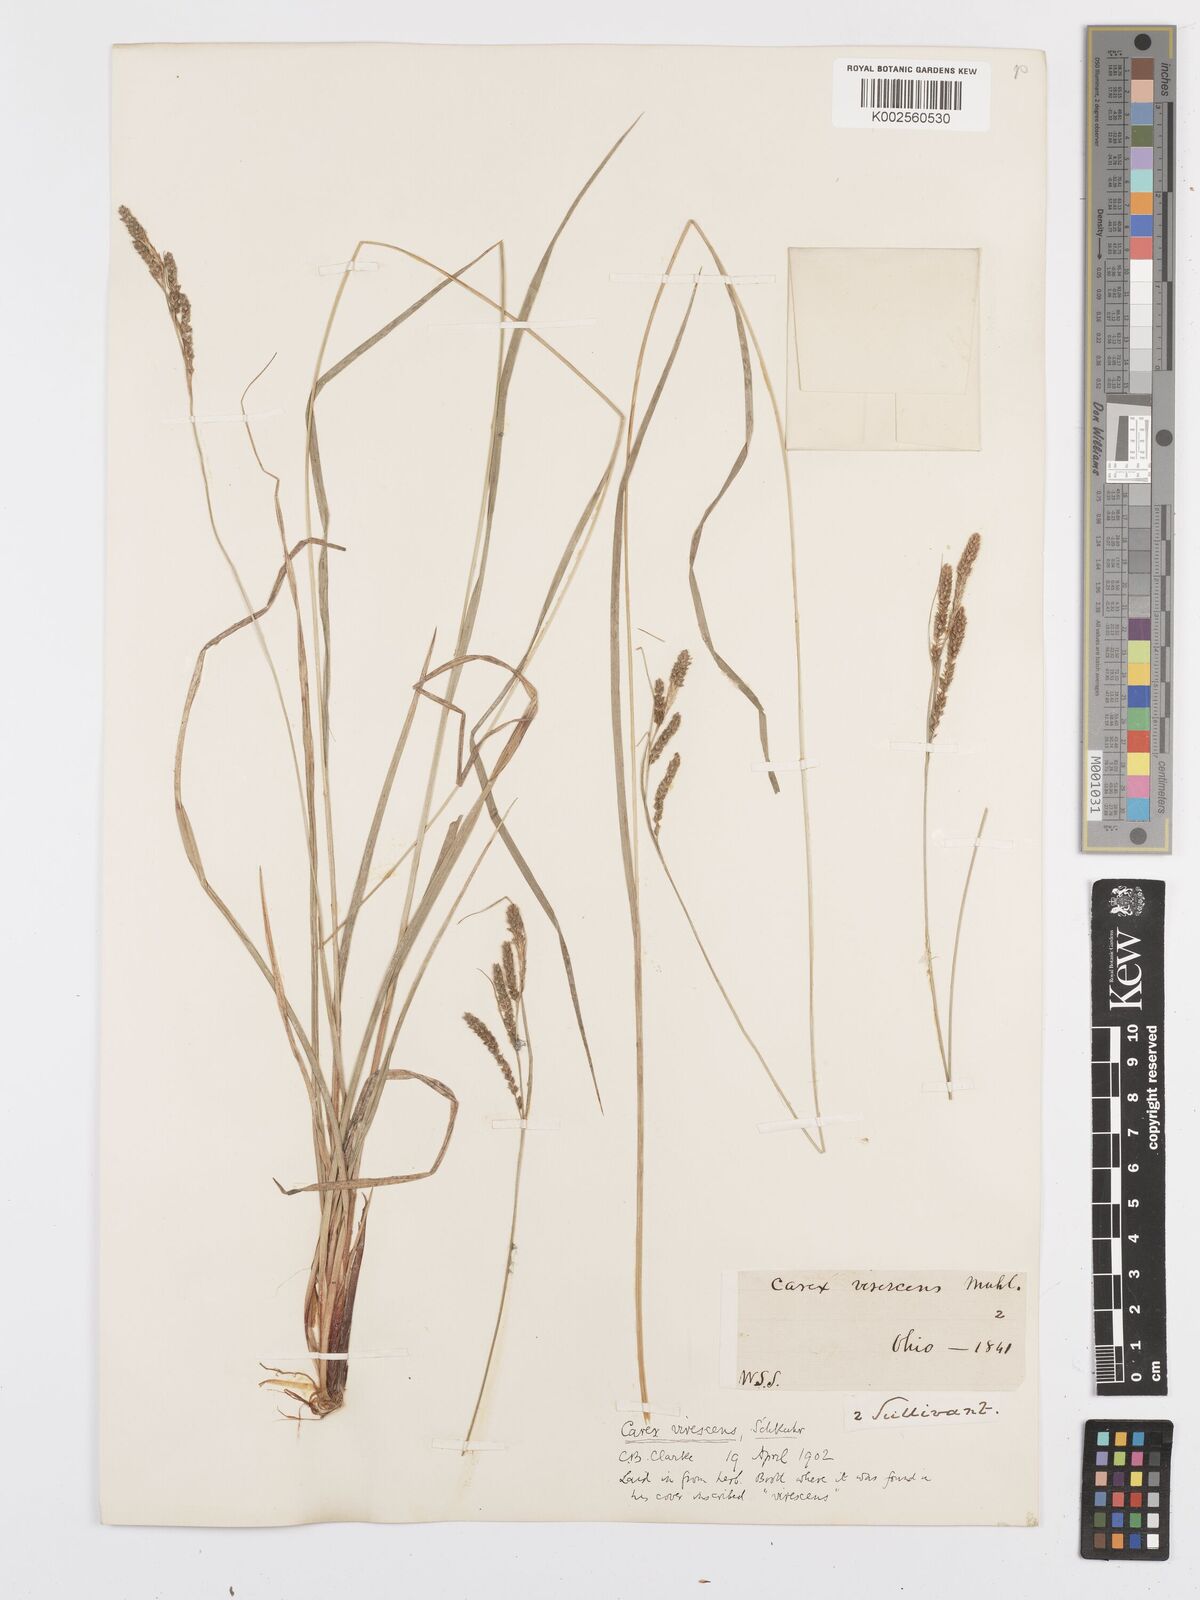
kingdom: Plantae
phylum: Tracheophyta
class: Liliopsida
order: Poales
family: Cyperaceae
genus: Carex
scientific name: Carex virescens
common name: Ribbed sedge
